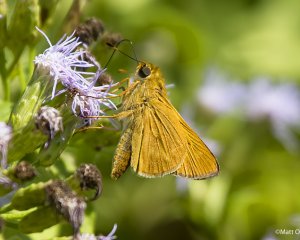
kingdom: Animalia
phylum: Arthropoda
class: Insecta
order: Lepidoptera
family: Hesperiidae
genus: Mellana
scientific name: Mellana eulogius
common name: Common Mellana
